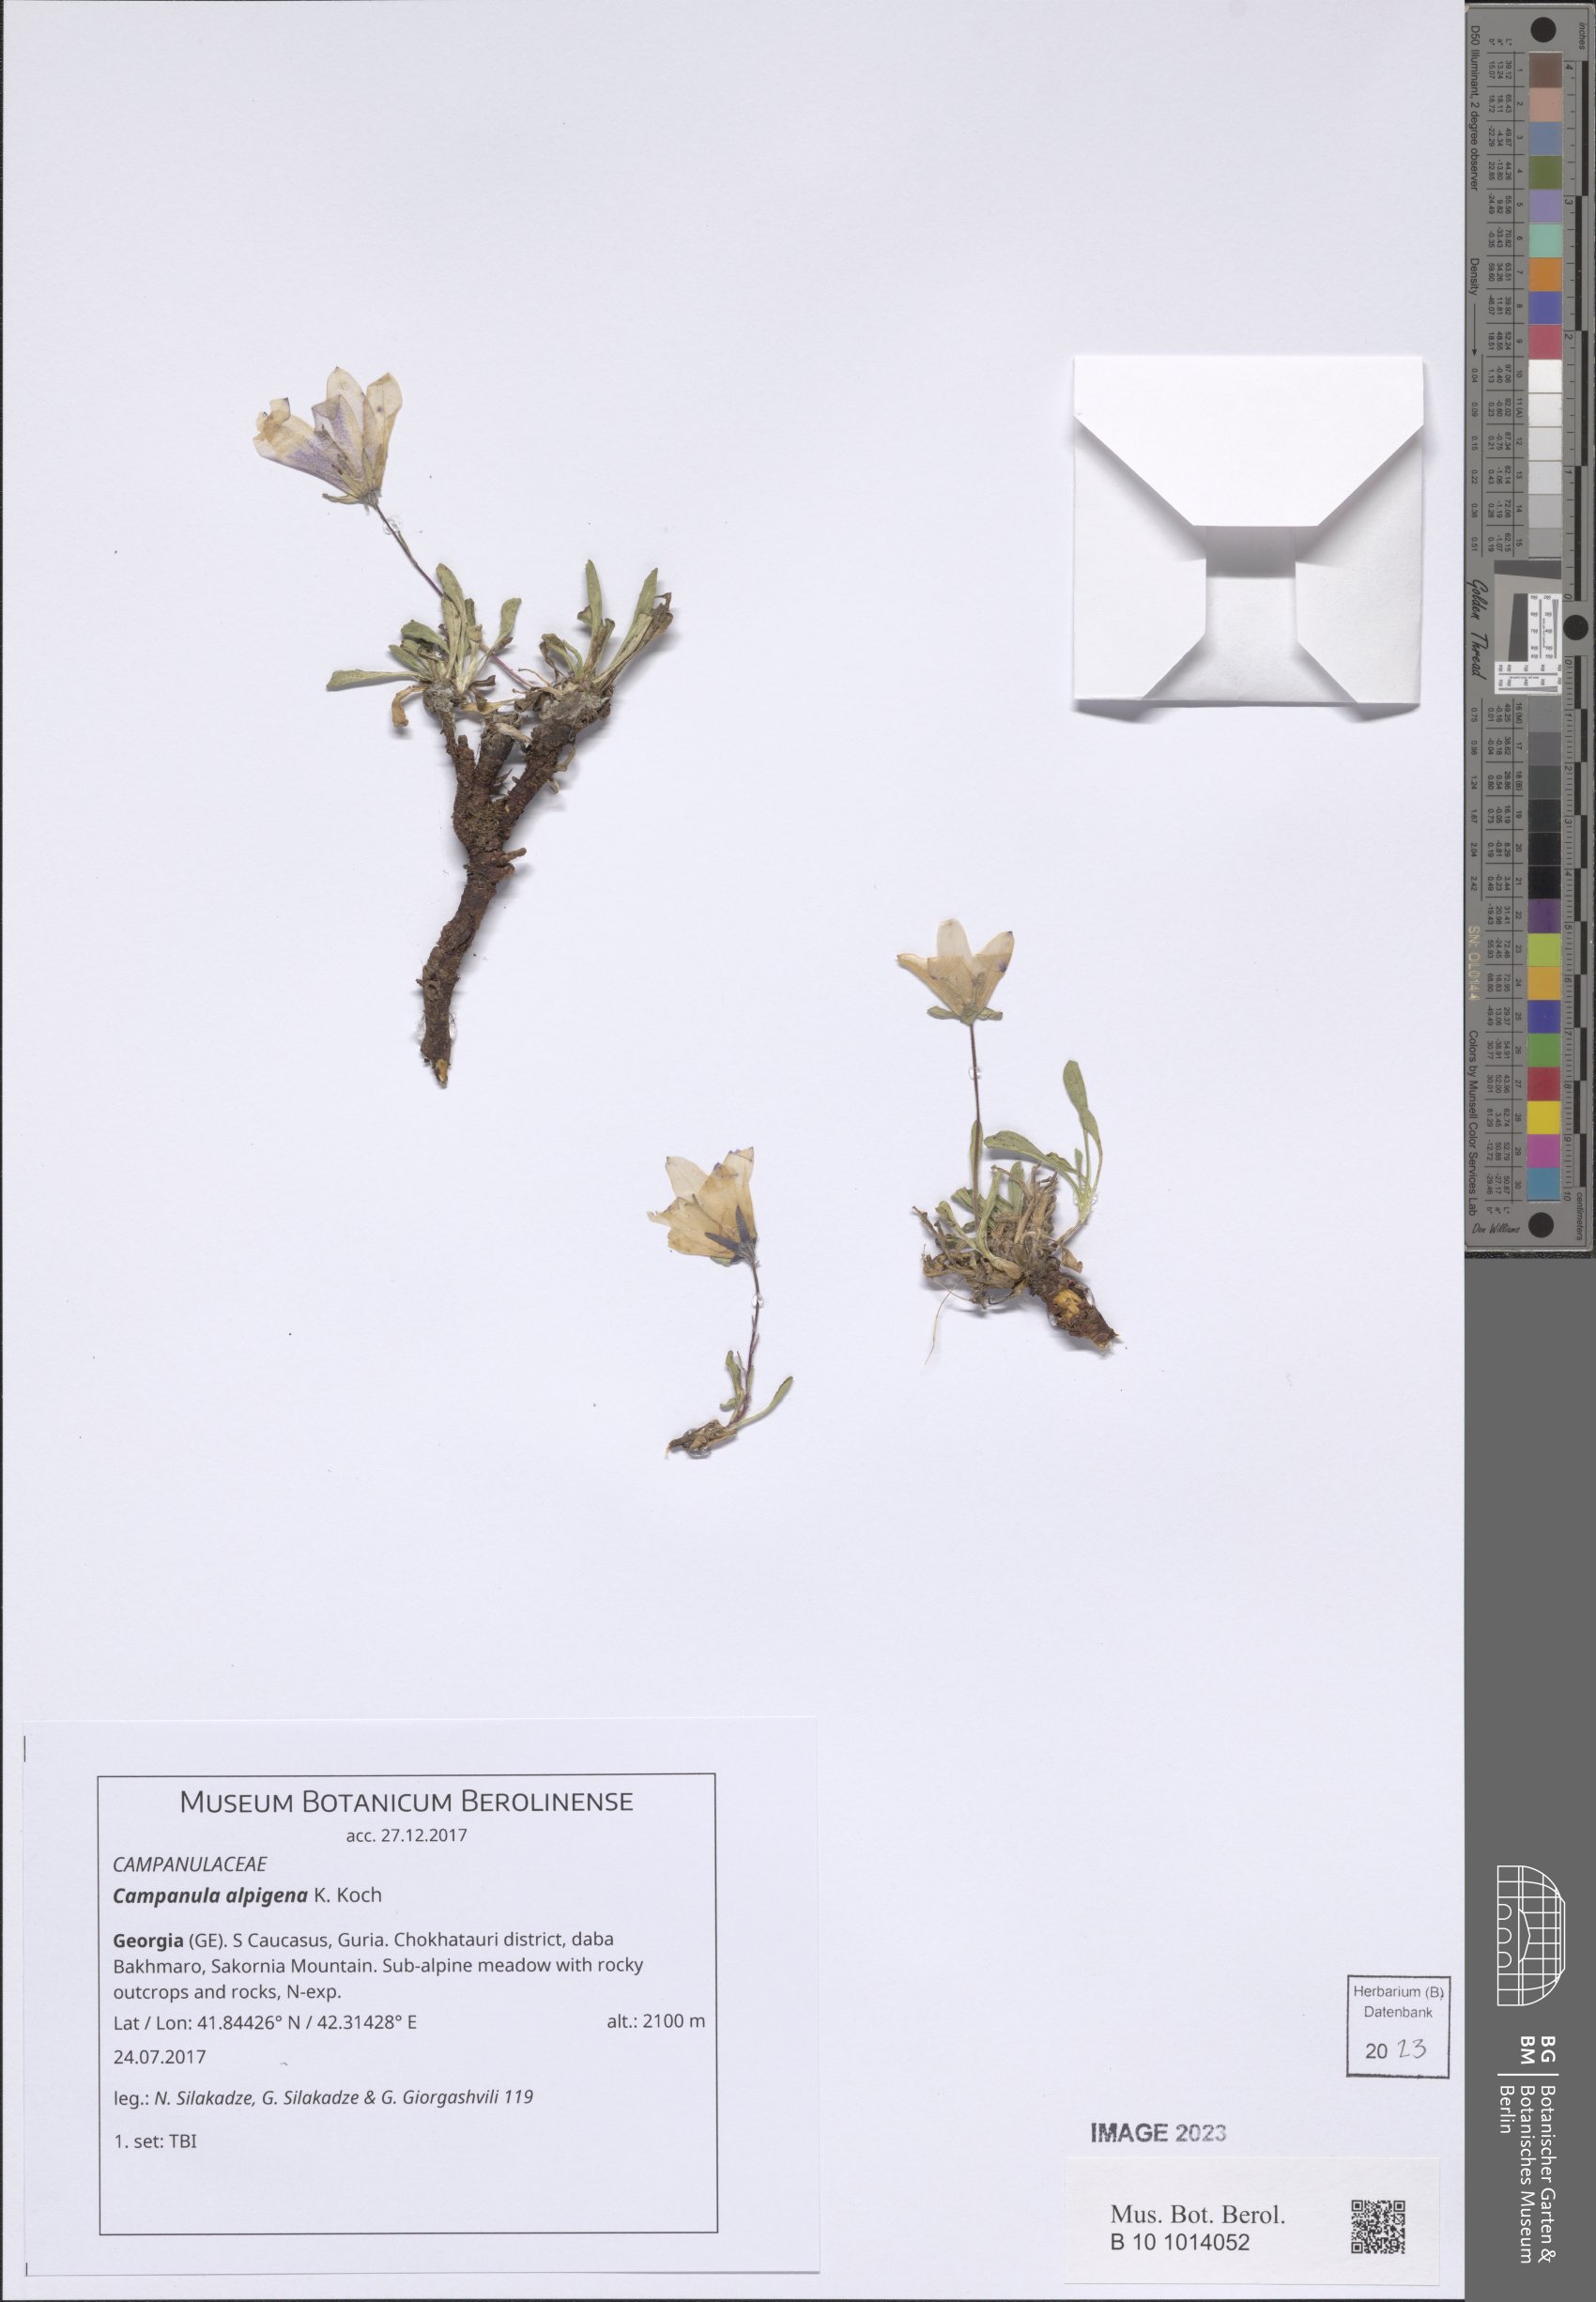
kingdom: Plantae
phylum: Tracheophyta
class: Magnoliopsida
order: Asterales
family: Campanulaceae
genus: Campanula
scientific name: Campanula saxifraga
